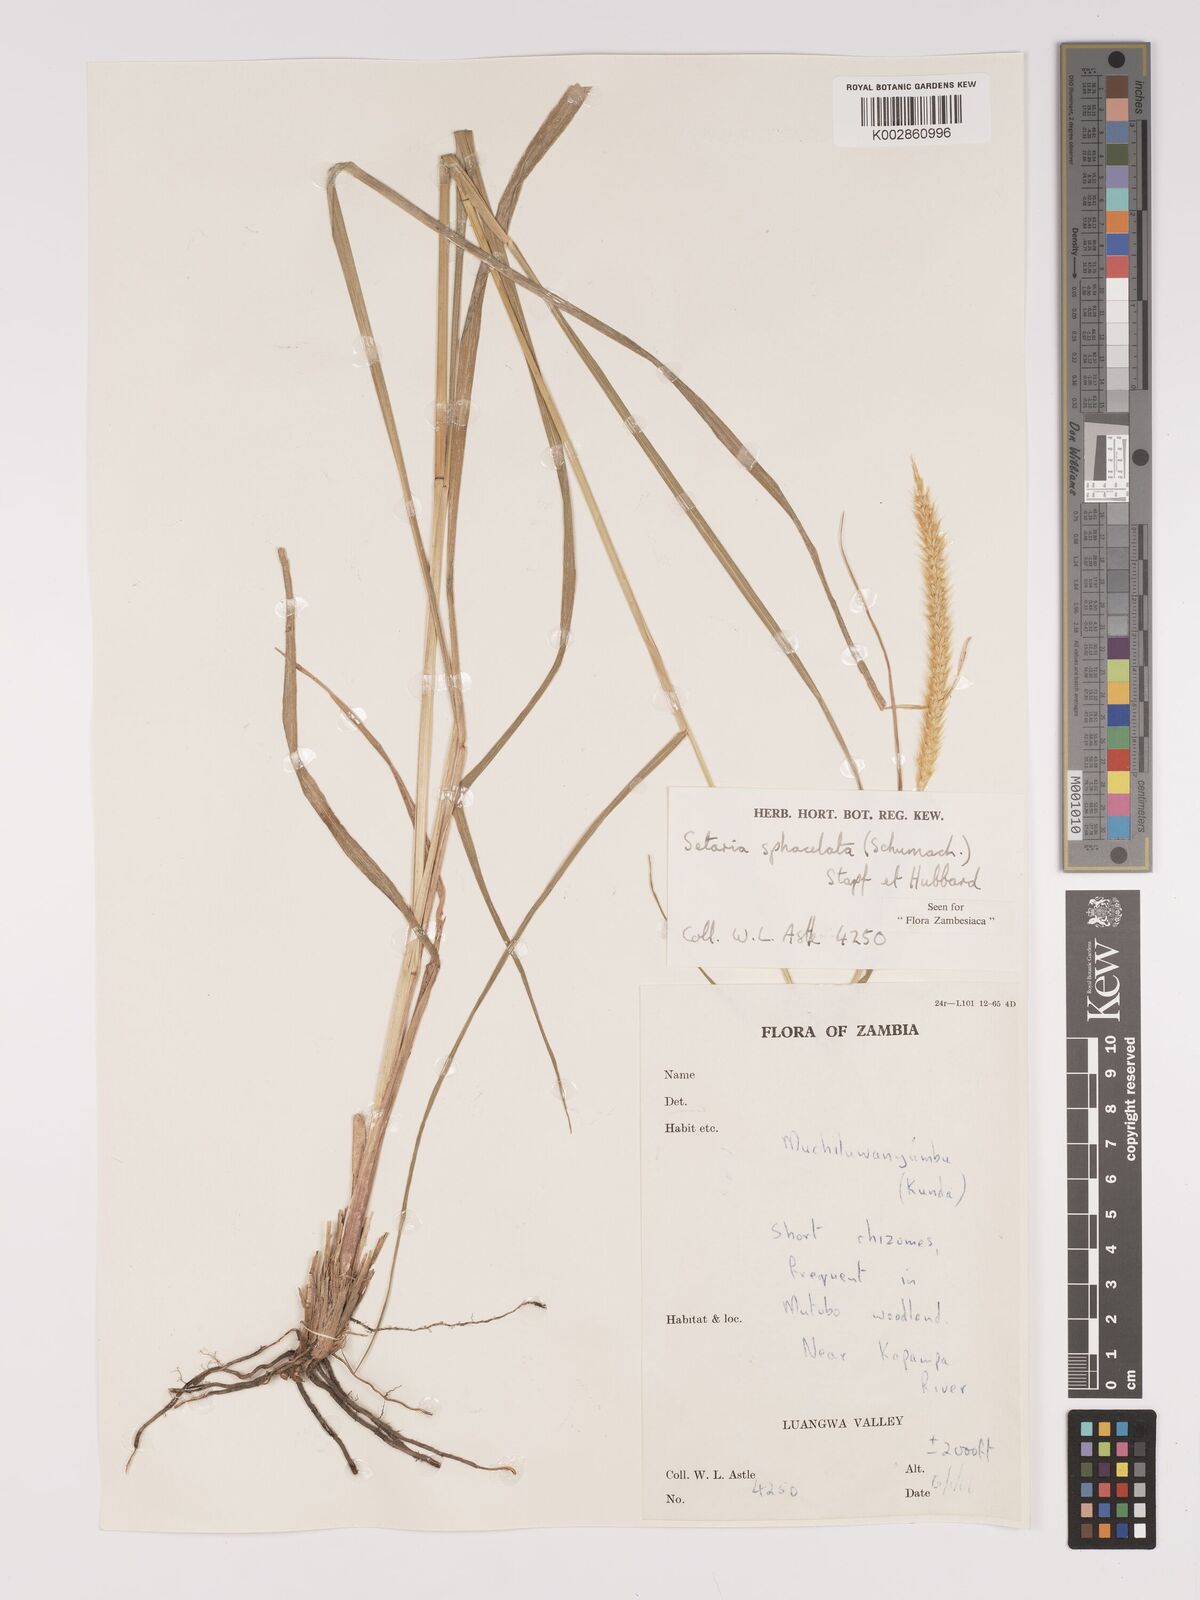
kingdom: Plantae
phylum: Tracheophyta
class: Liliopsida
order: Poales
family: Poaceae
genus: Setaria
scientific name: Setaria sphacelata
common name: African bristlegrass
